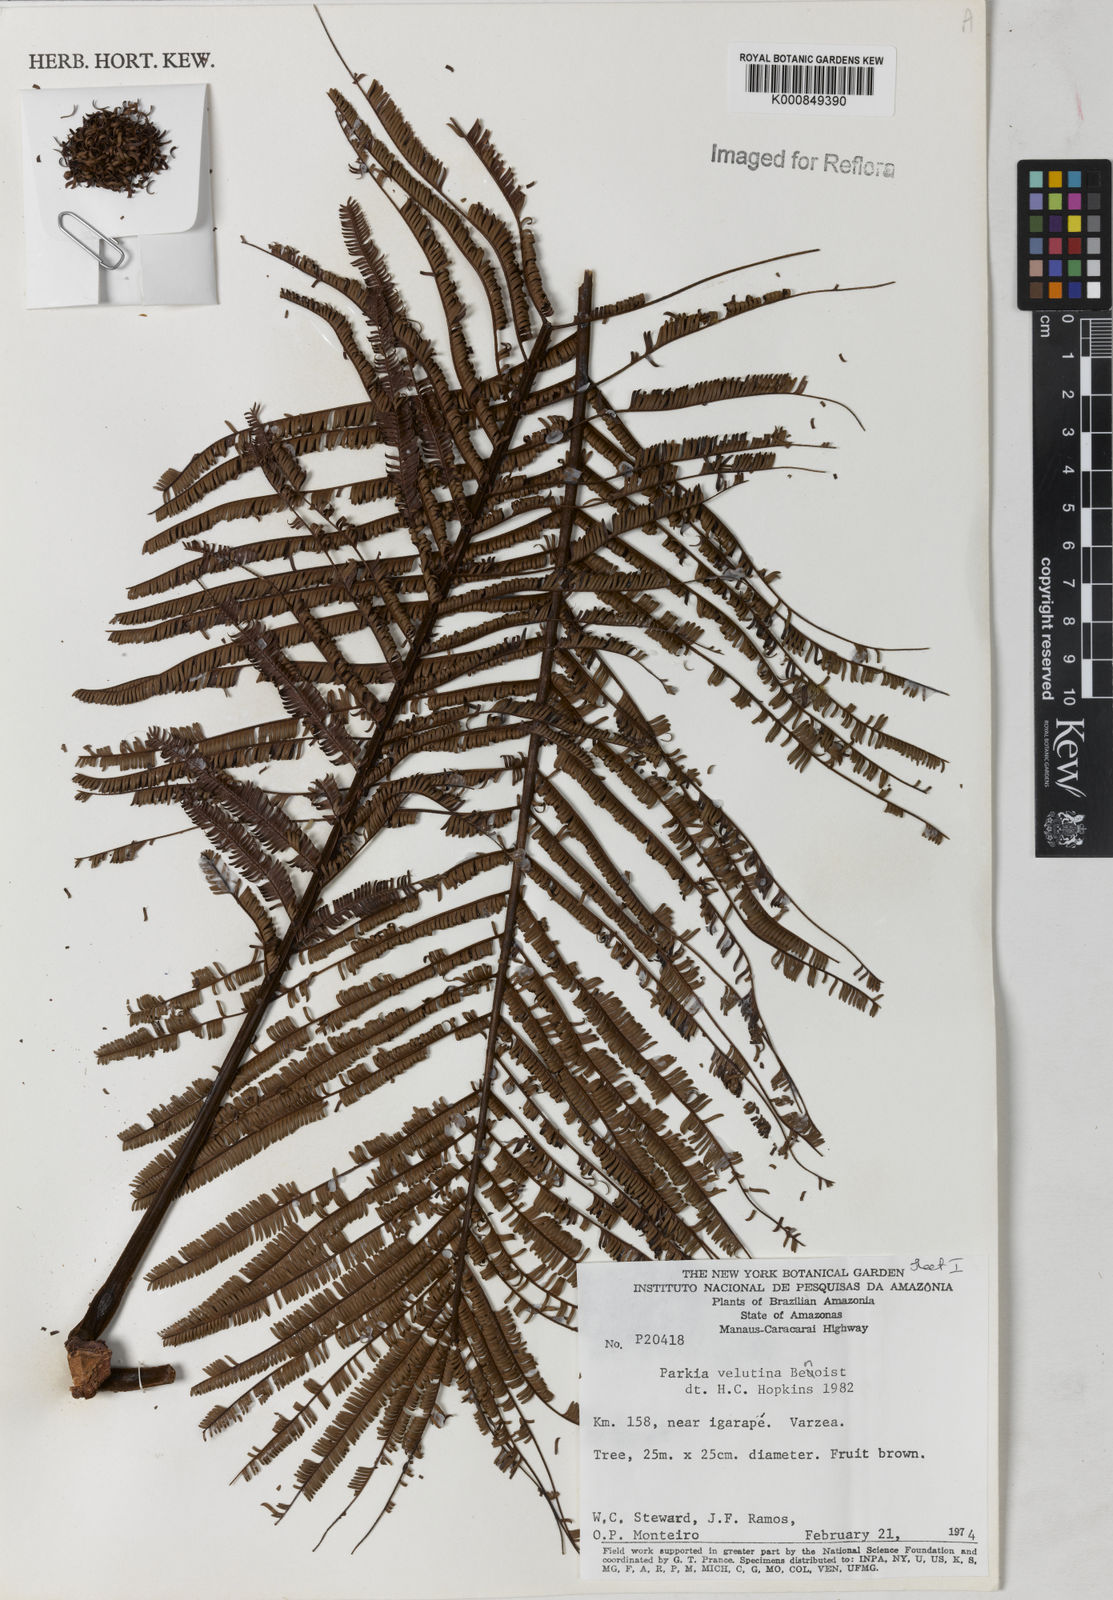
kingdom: Plantae
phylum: Tracheophyta
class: Magnoliopsida
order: Fabales
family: Fabaceae
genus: Parkia
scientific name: Parkia velutina
